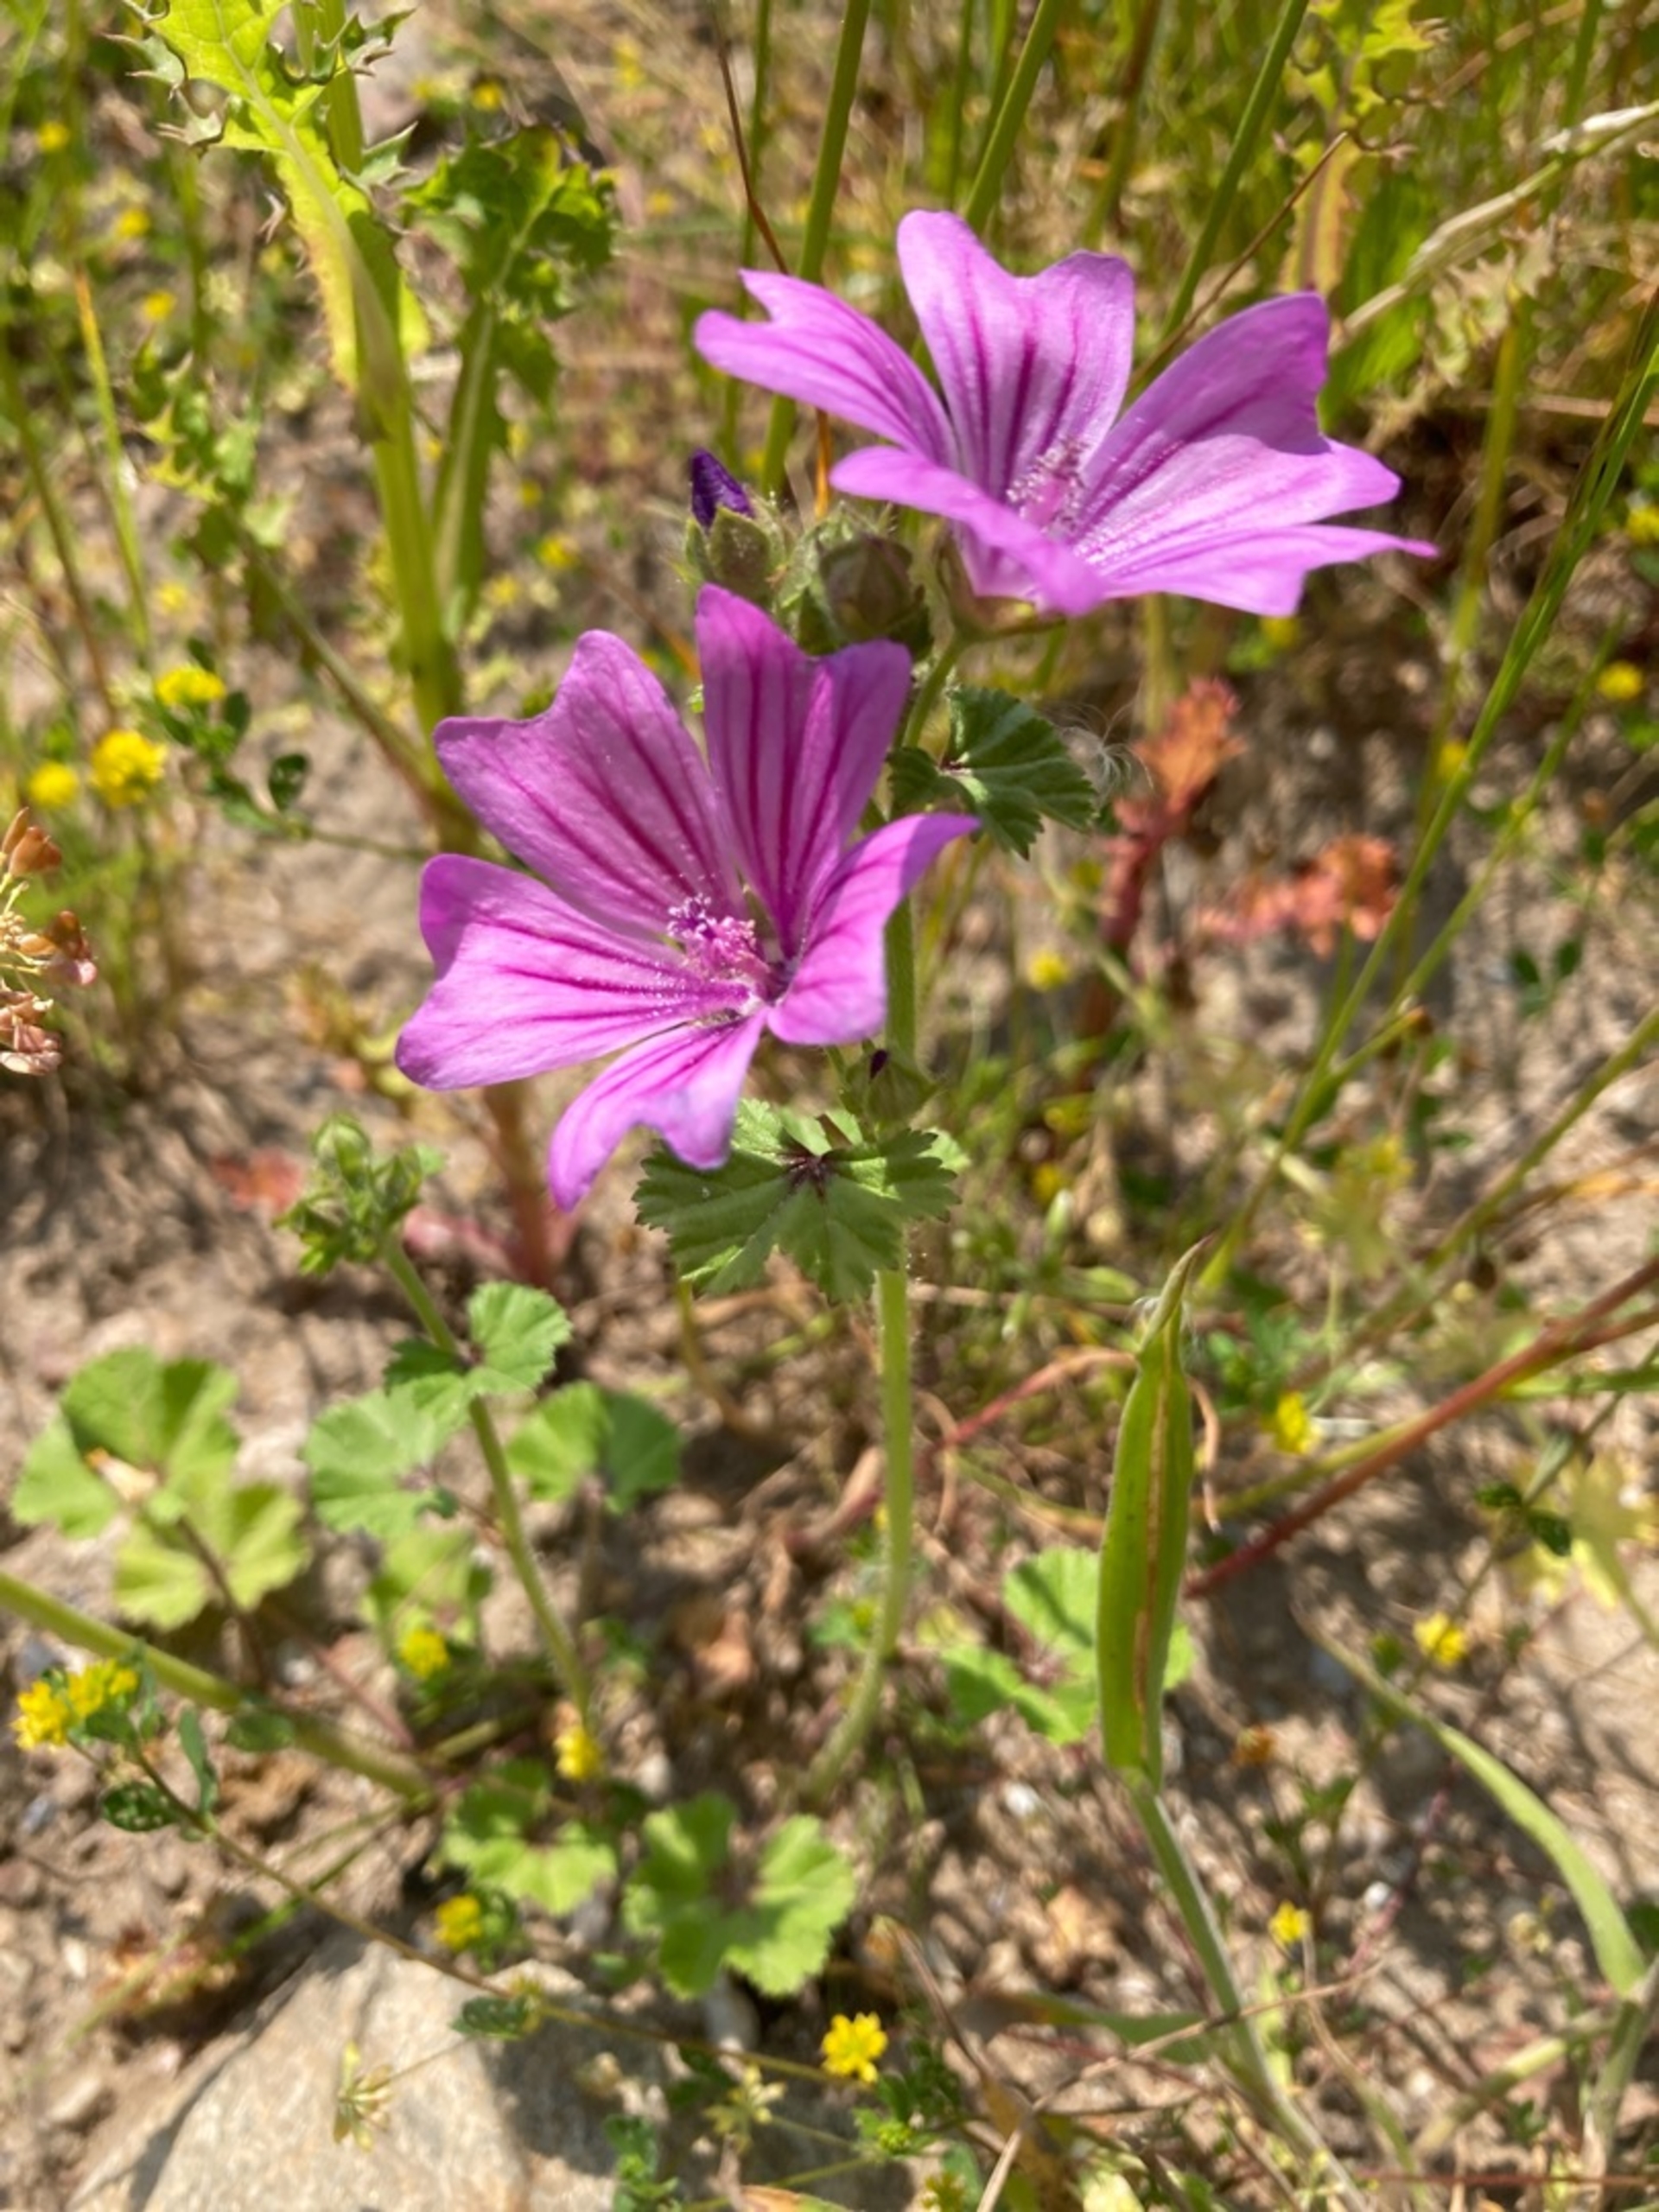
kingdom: Plantae
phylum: Tracheophyta
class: Magnoliopsida
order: Malvales
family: Malvaceae
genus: Malva
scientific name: Malva sylvestris
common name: Almindelig katost
